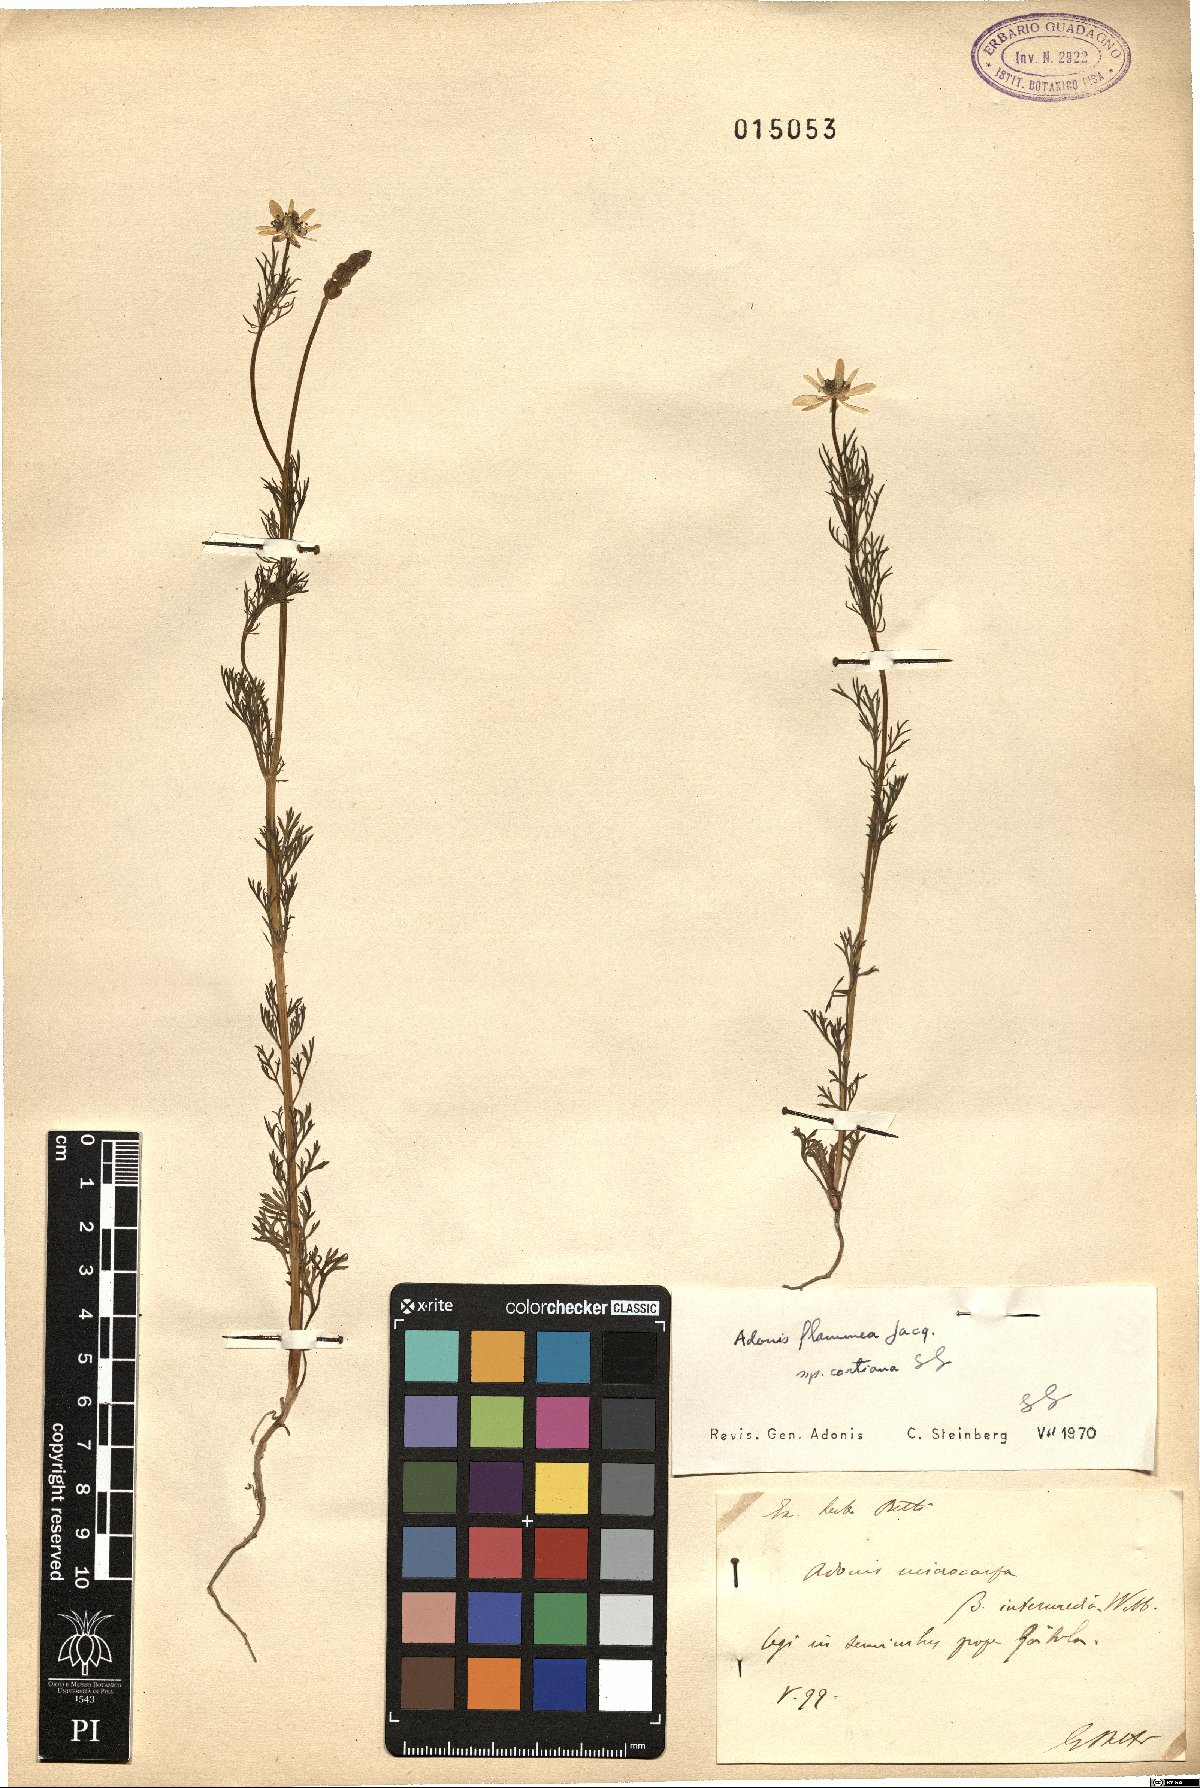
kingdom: Plantae
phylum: Tracheophyta
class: Magnoliopsida
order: Ranunculales
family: Ranunculaceae
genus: Adonis
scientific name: Adonis flammea
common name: Large pheasant's-eye
